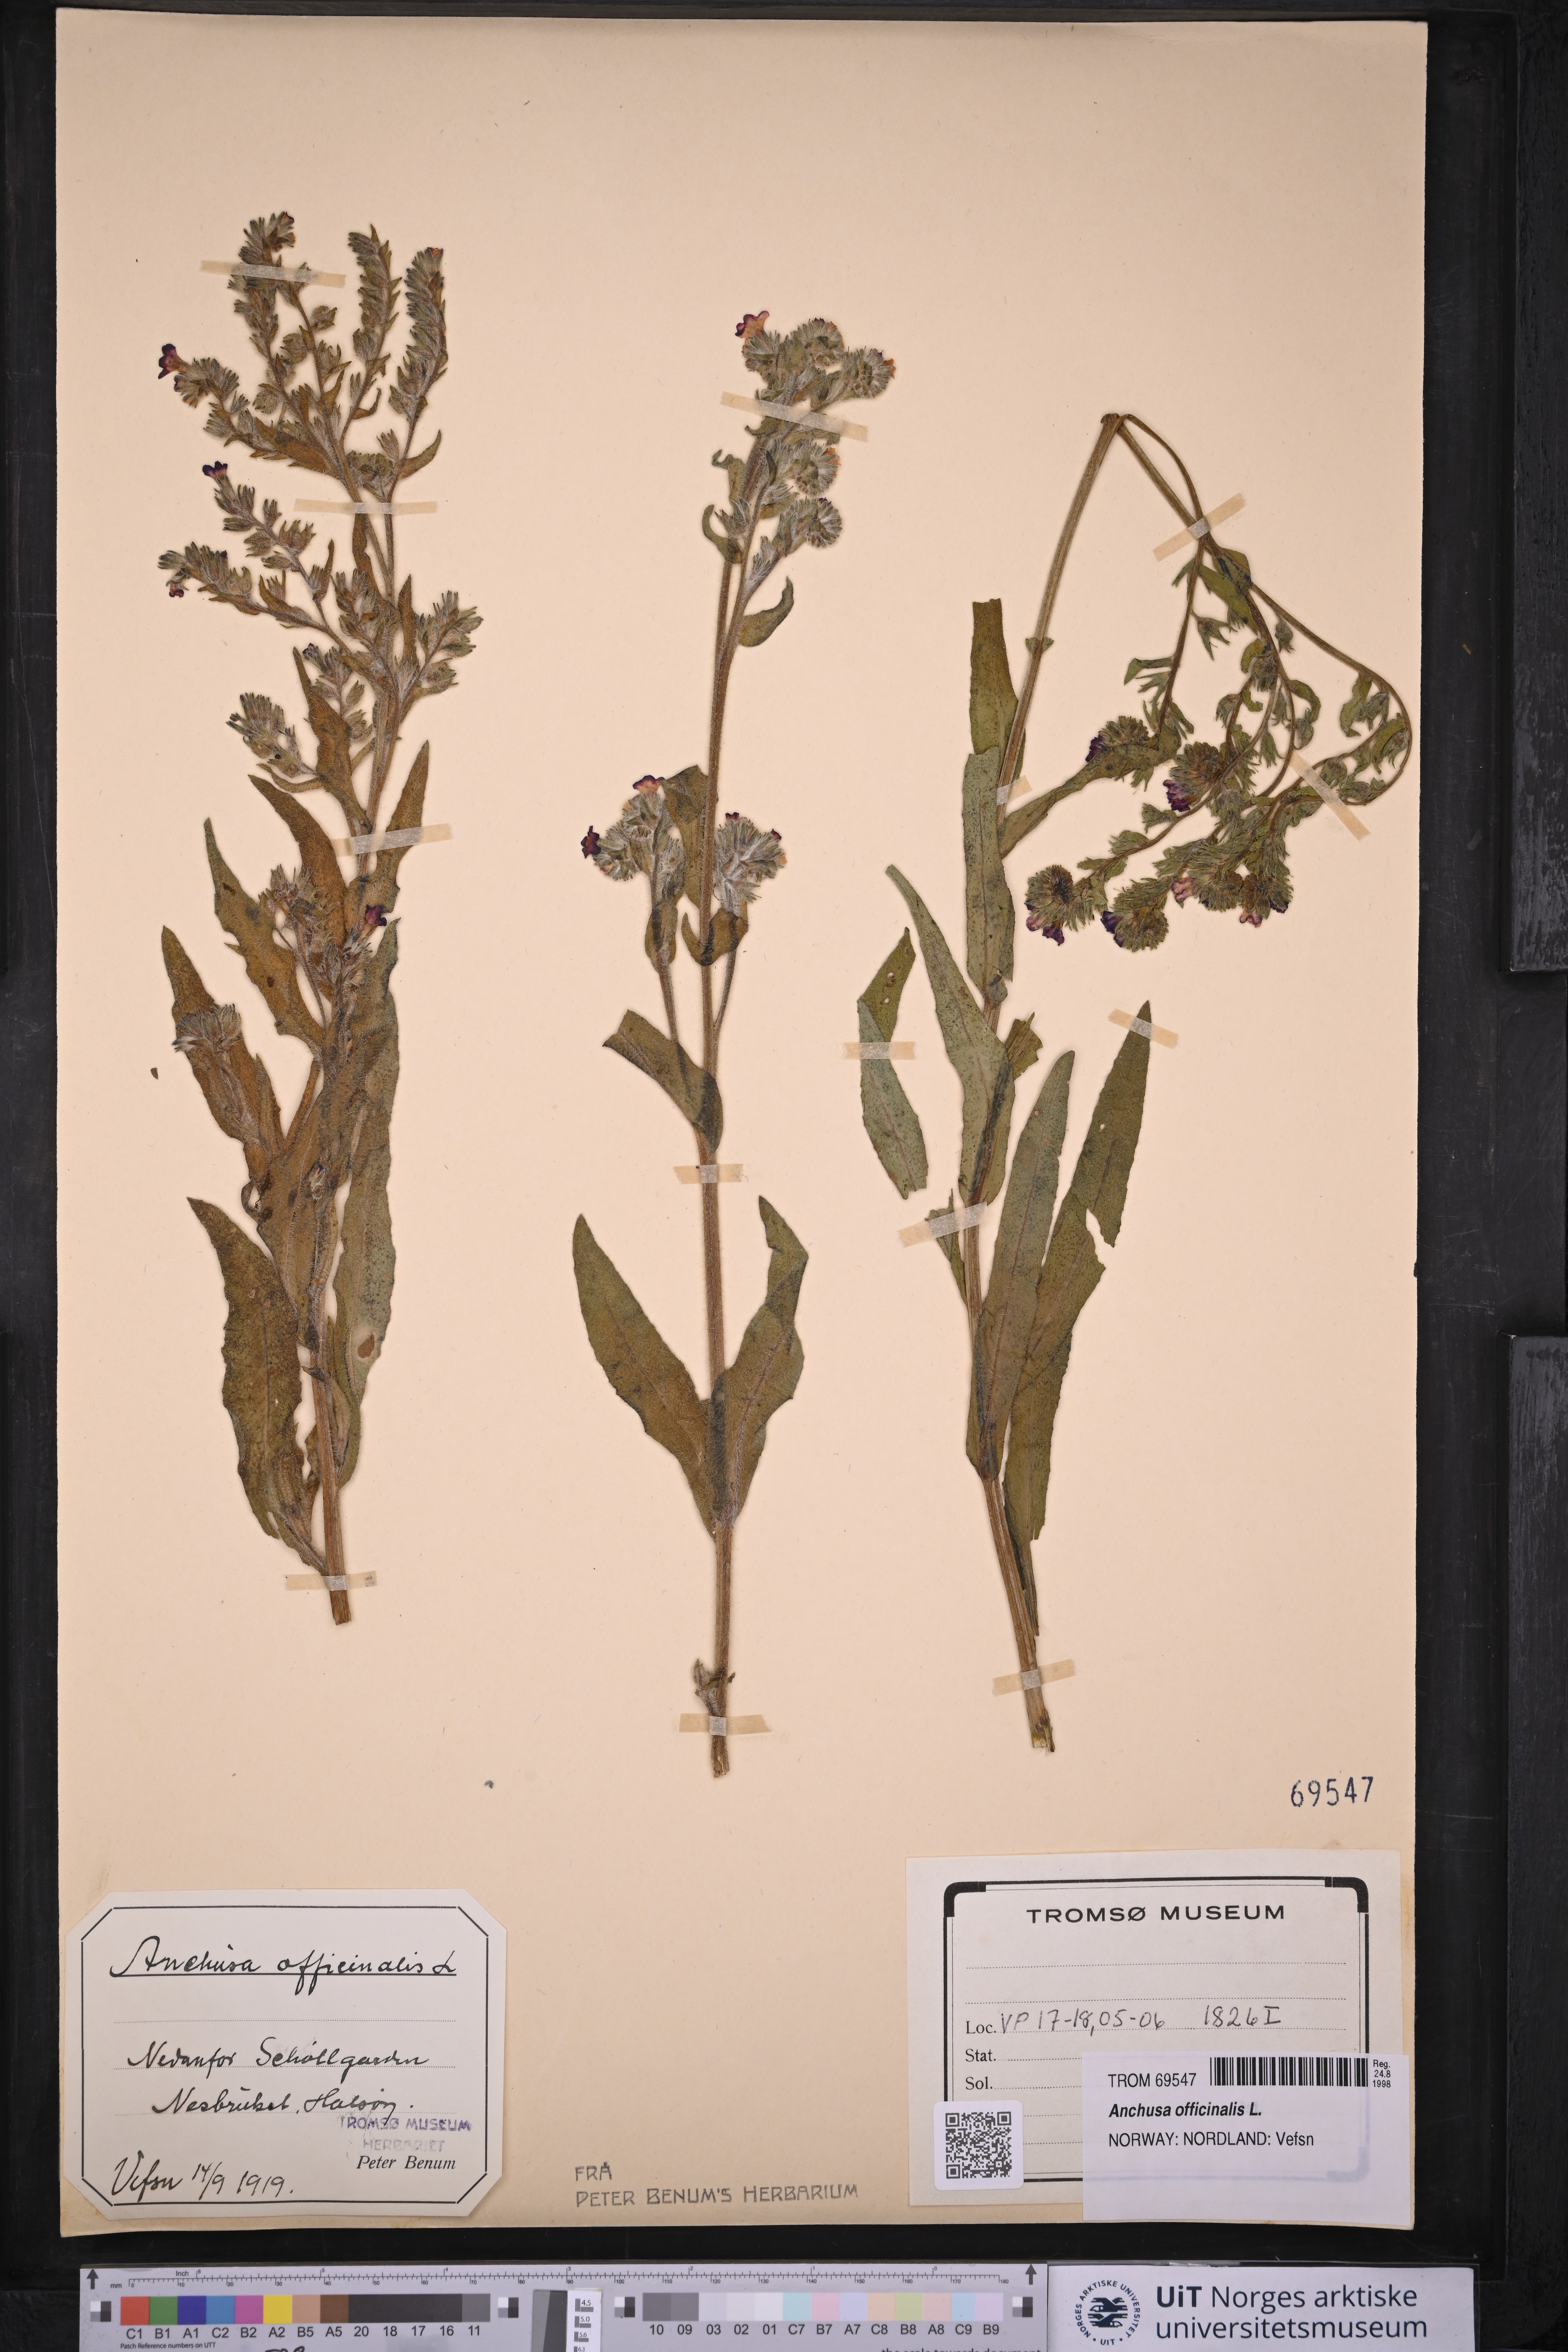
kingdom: Plantae
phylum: Tracheophyta
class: Magnoliopsida
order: Boraginales
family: Boraginaceae
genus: Anchusa
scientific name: Anchusa officinalis
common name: Alkanet
